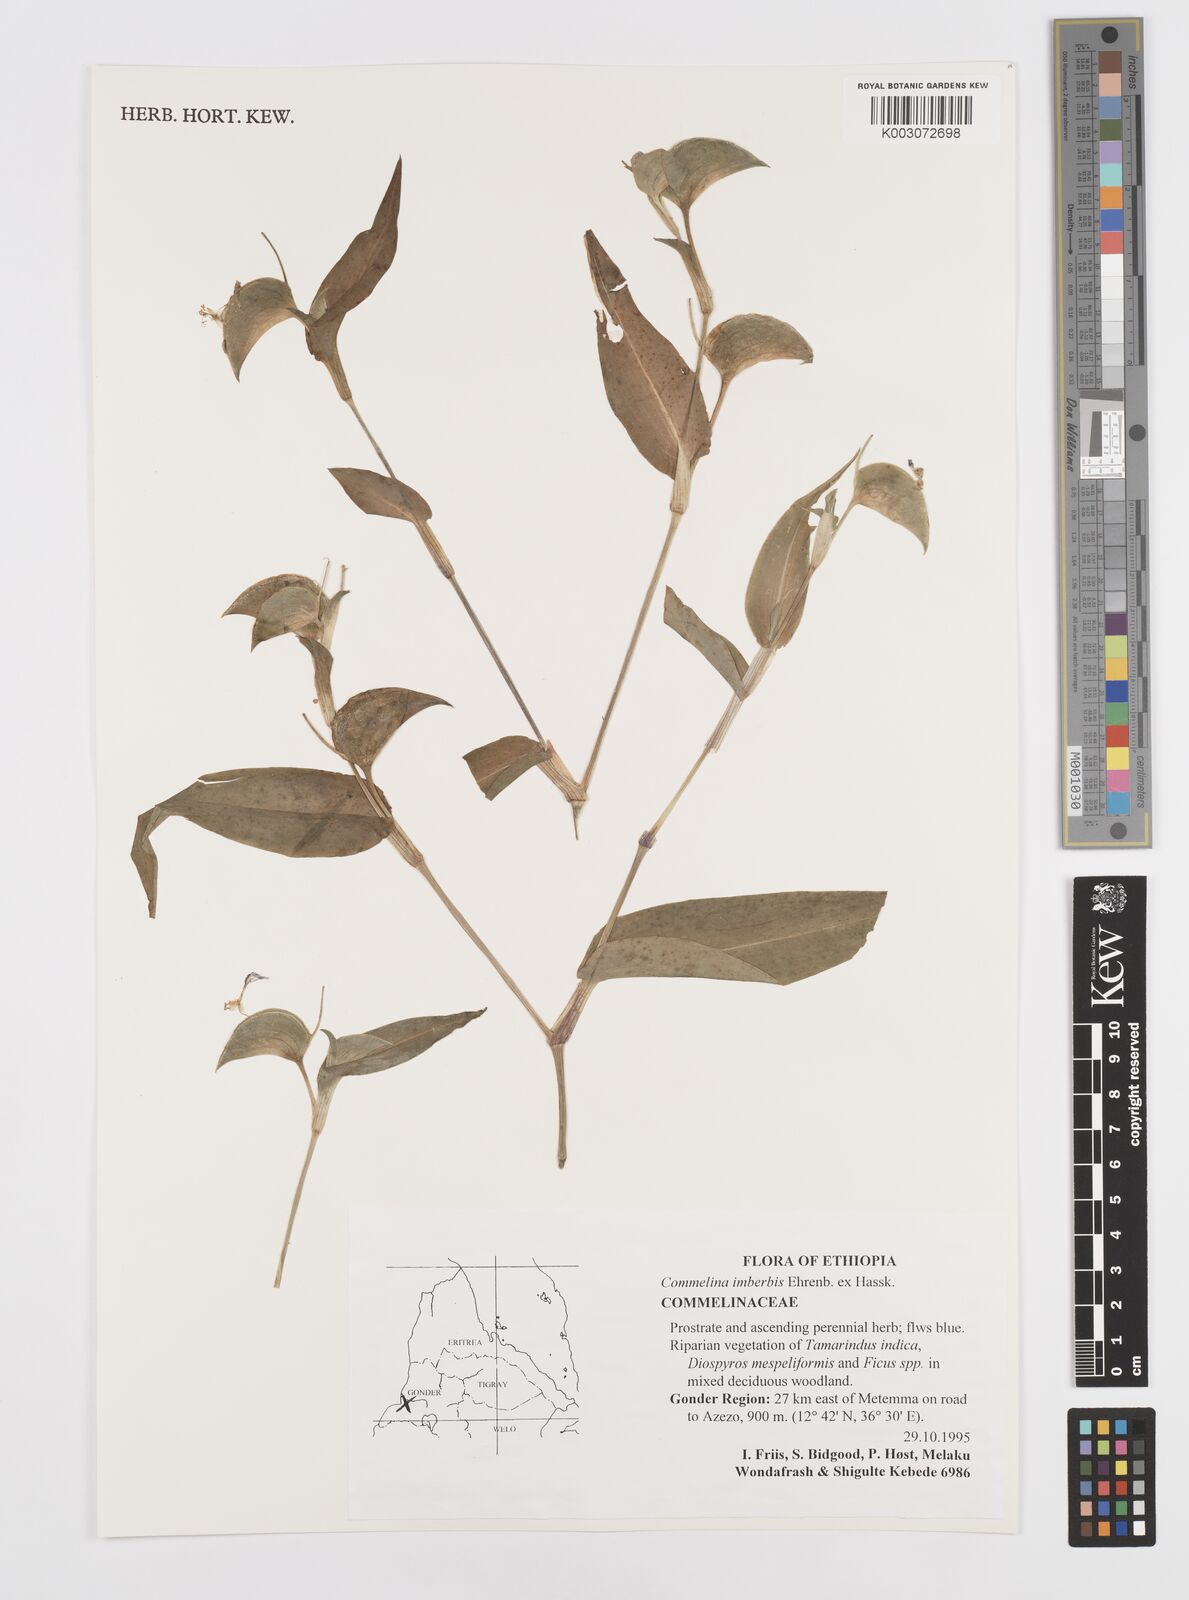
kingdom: Plantae
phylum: Tracheophyta
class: Liliopsida
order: Commelinales
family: Commelinaceae
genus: Commelina
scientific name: Commelina imberbis
